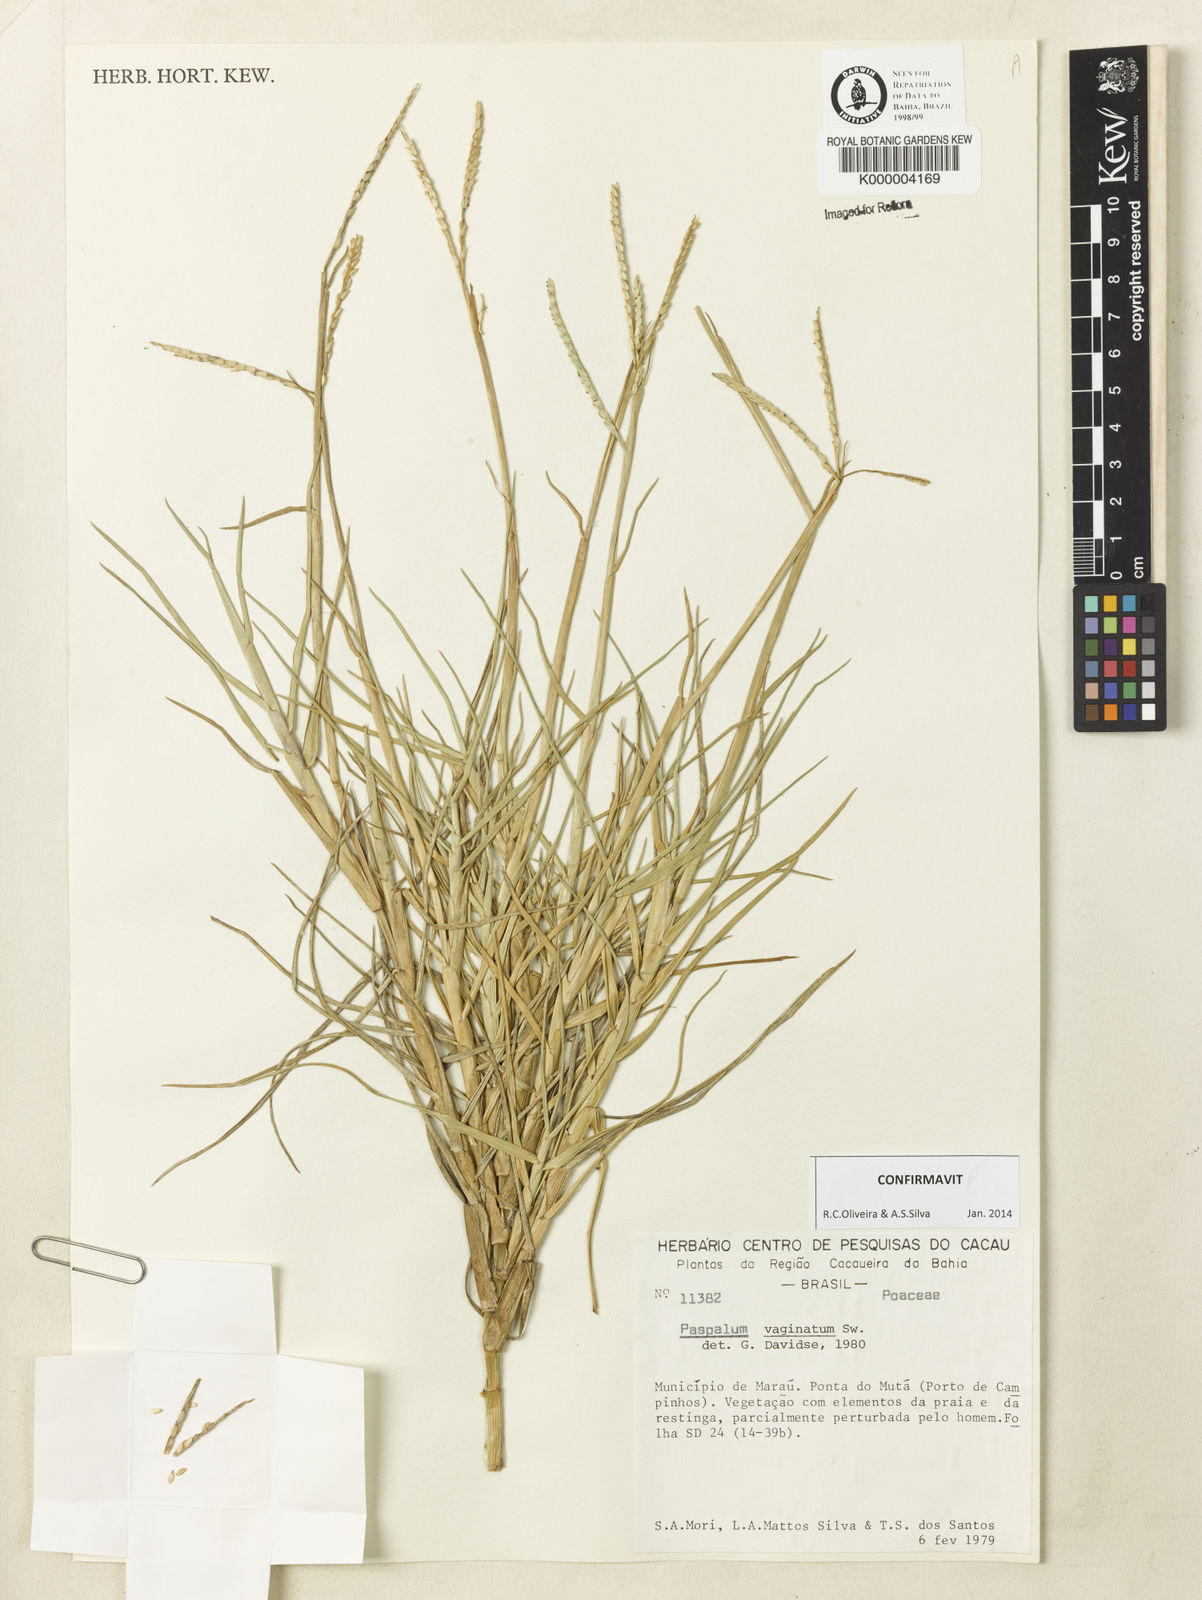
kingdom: Plantae
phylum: Tracheophyta
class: Liliopsida
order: Poales
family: Poaceae
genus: Paspalum
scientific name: Paspalum vaginatum
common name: Seashore paspalum
